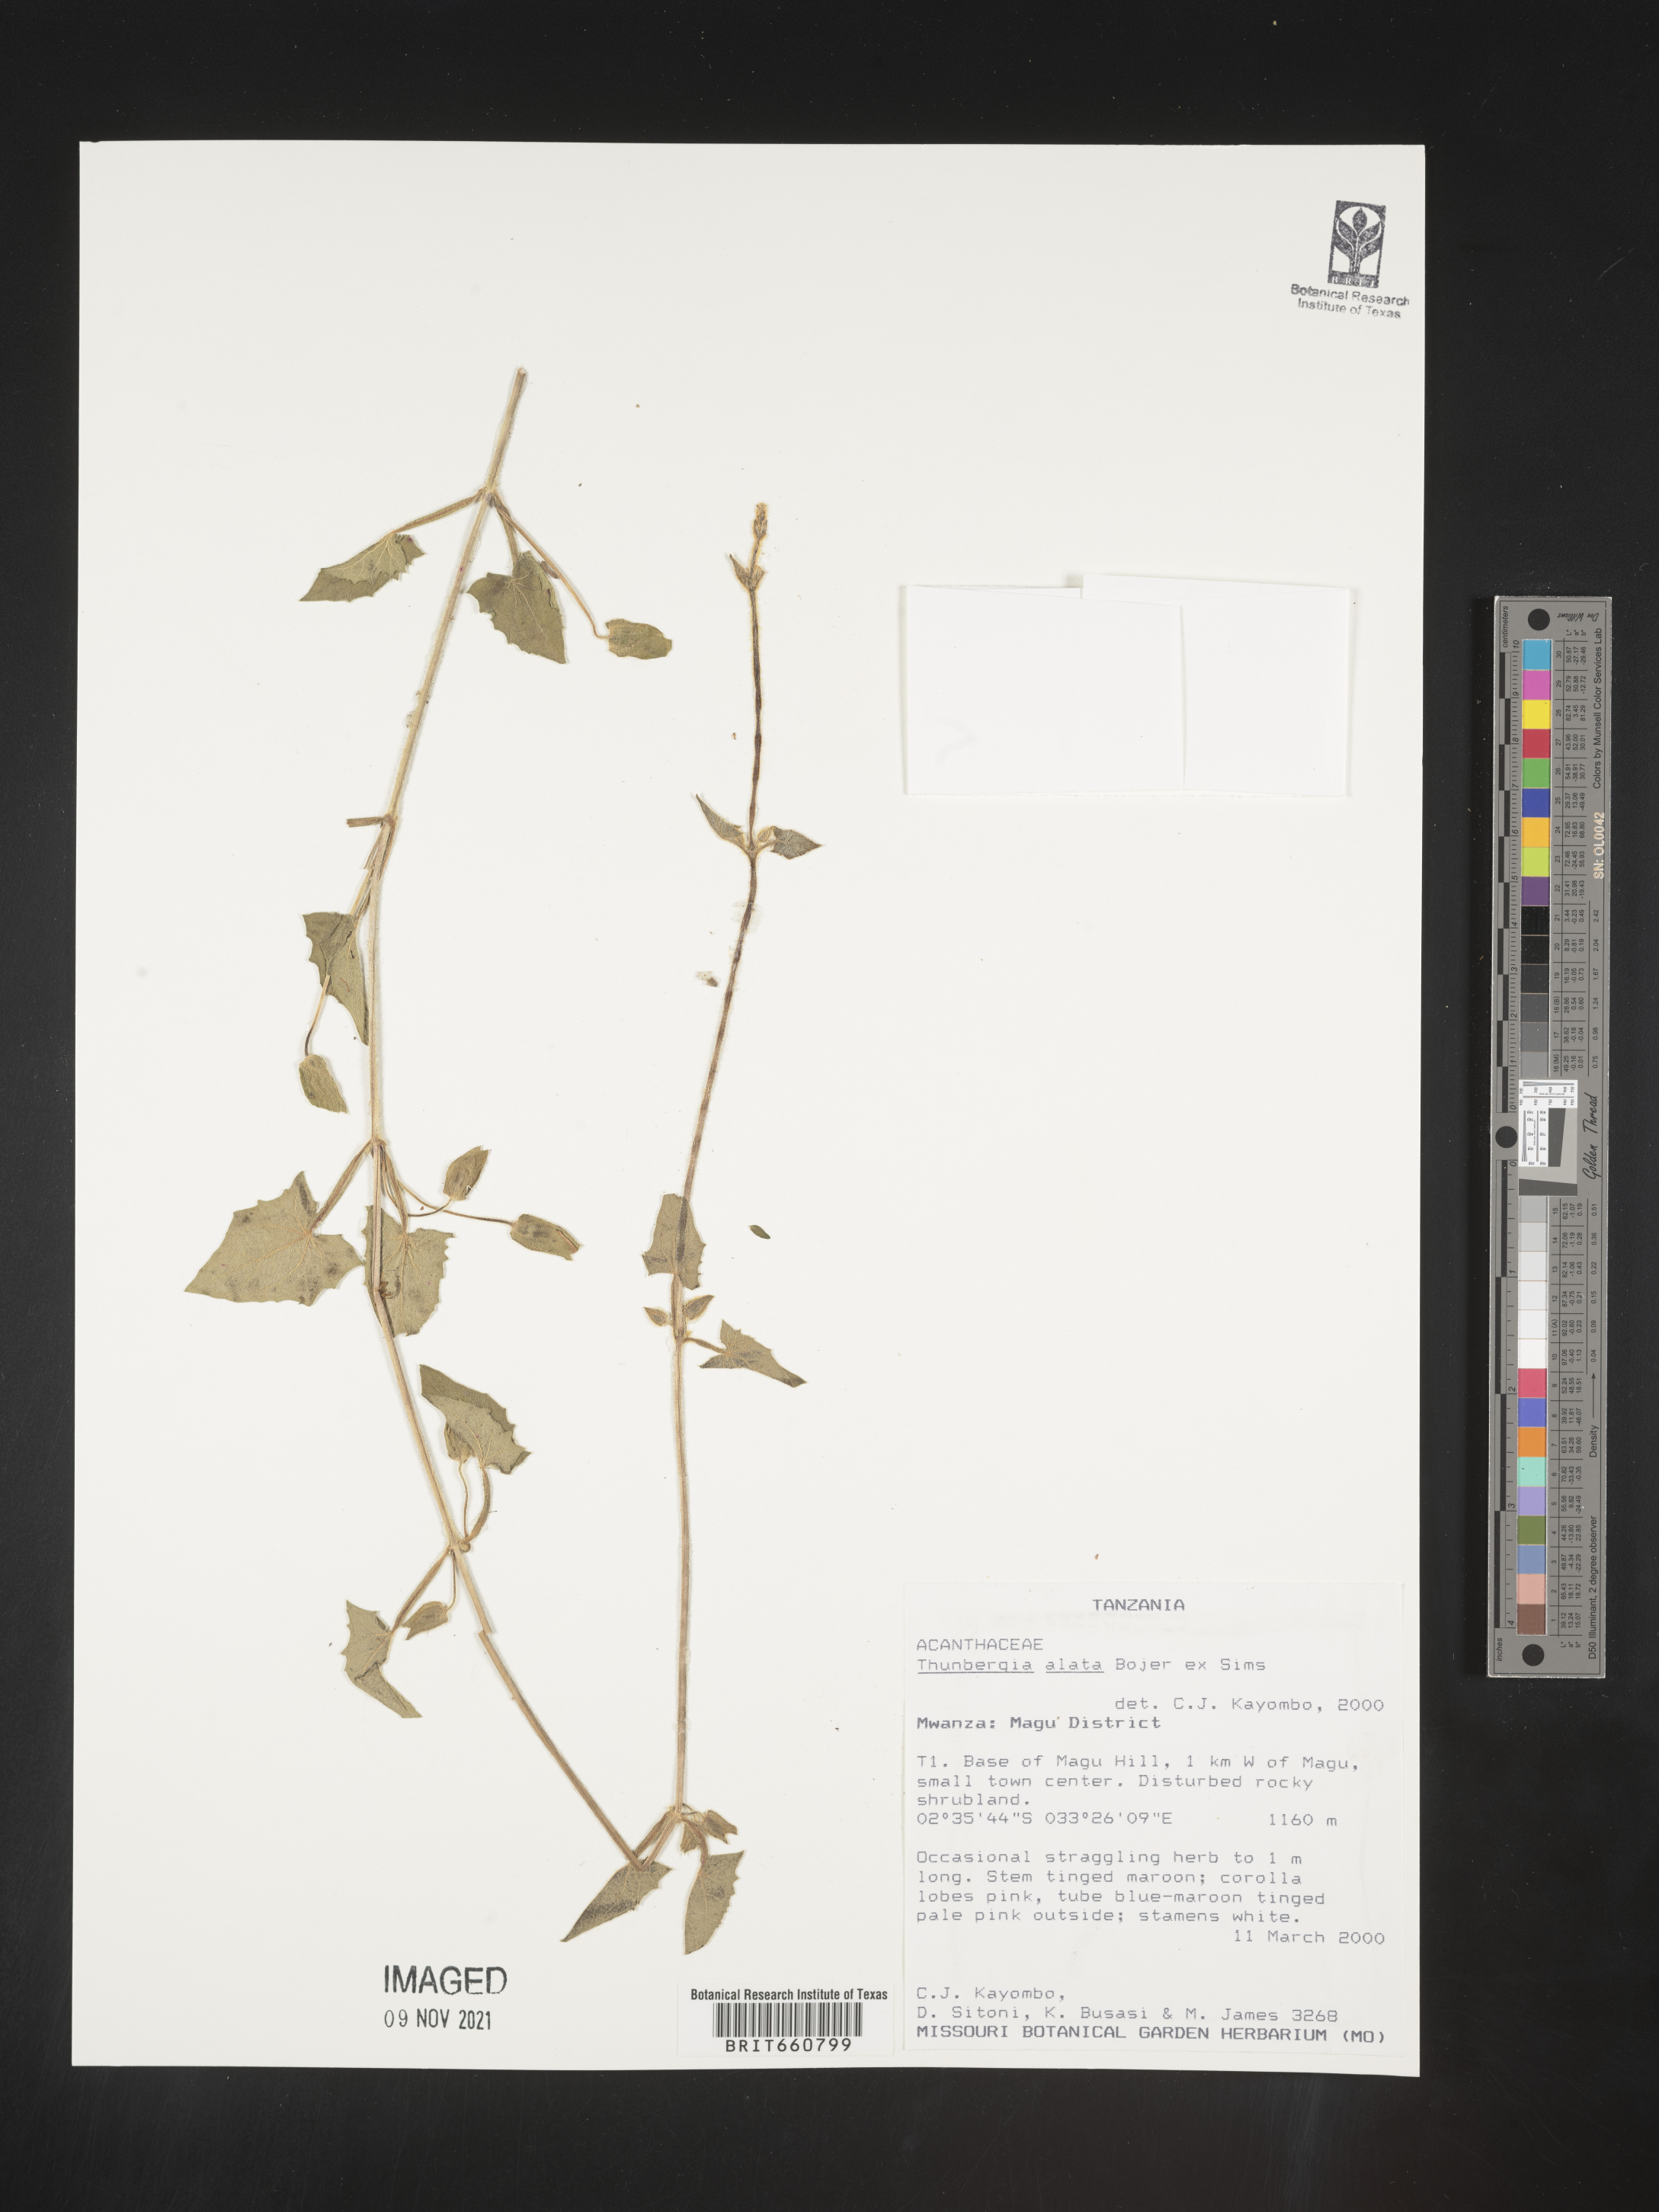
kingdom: Plantae
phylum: Tracheophyta
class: Magnoliopsida
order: Lamiales
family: Acanthaceae
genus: Thunbergia
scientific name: Thunbergia
